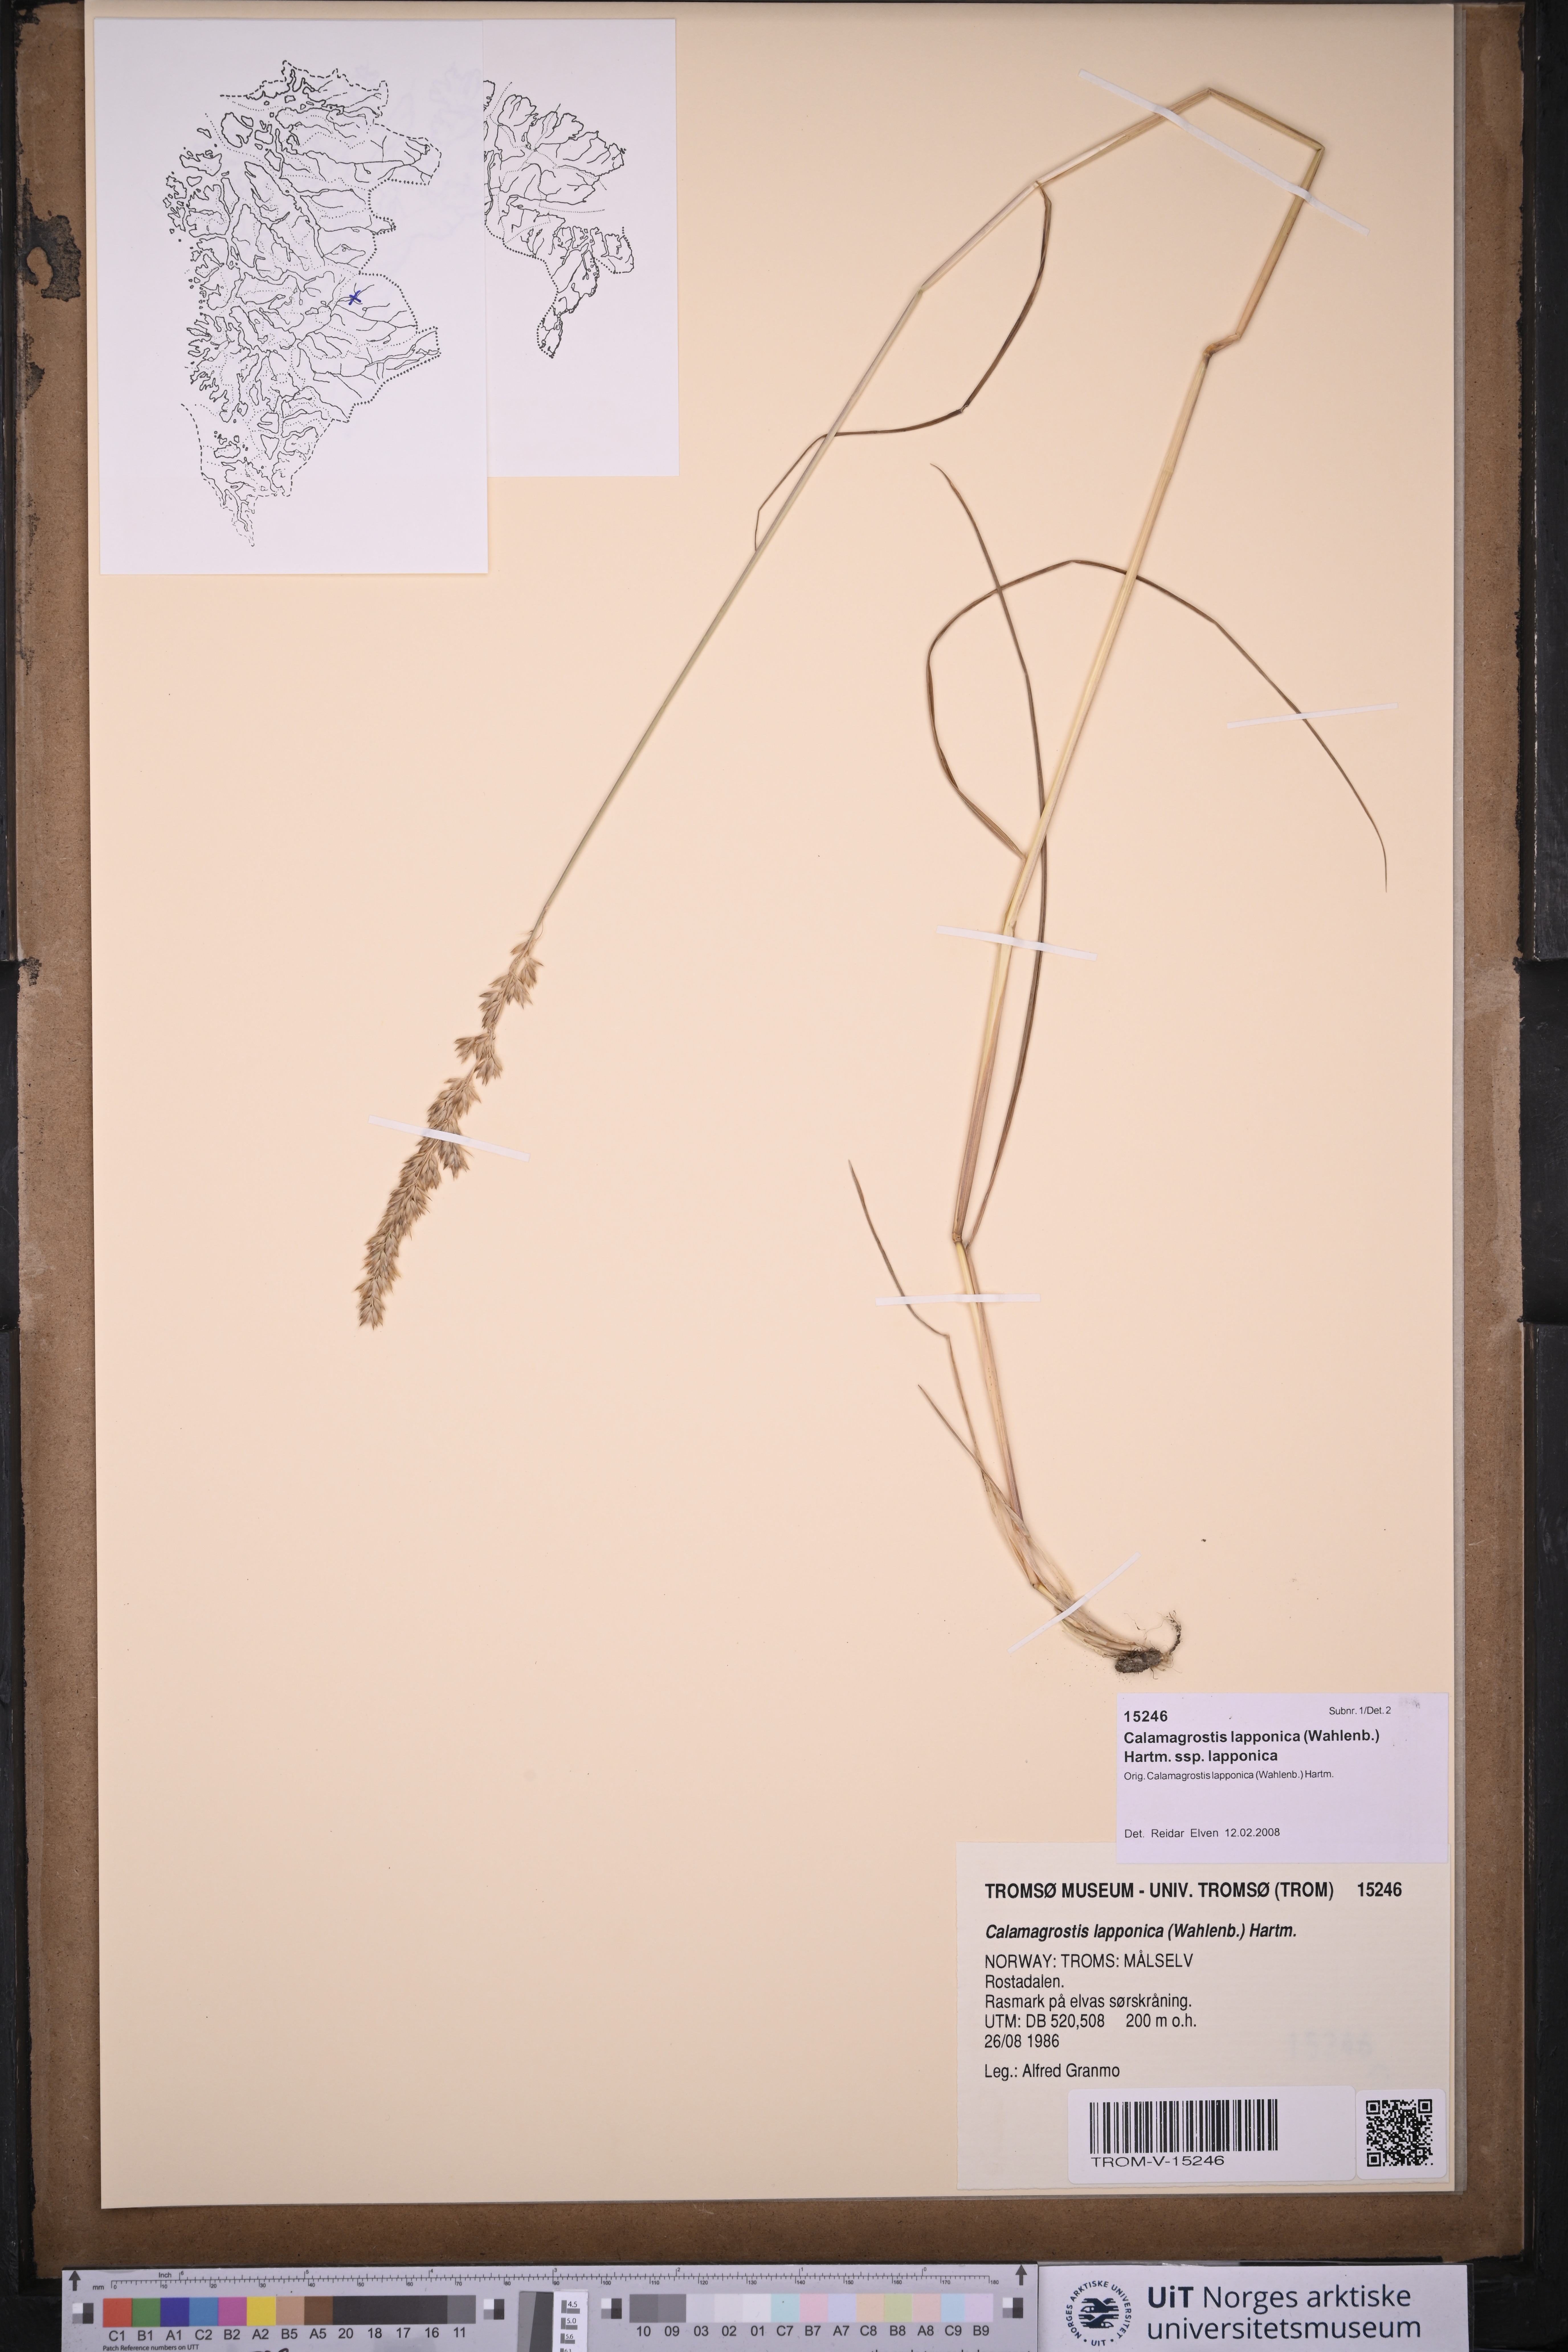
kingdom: Plantae
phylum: Tracheophyta
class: Liliopsida
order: Poales
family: Poaceae
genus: Calamagrostis
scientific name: Calamagrostis lapponica
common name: Lapland reedgrass
